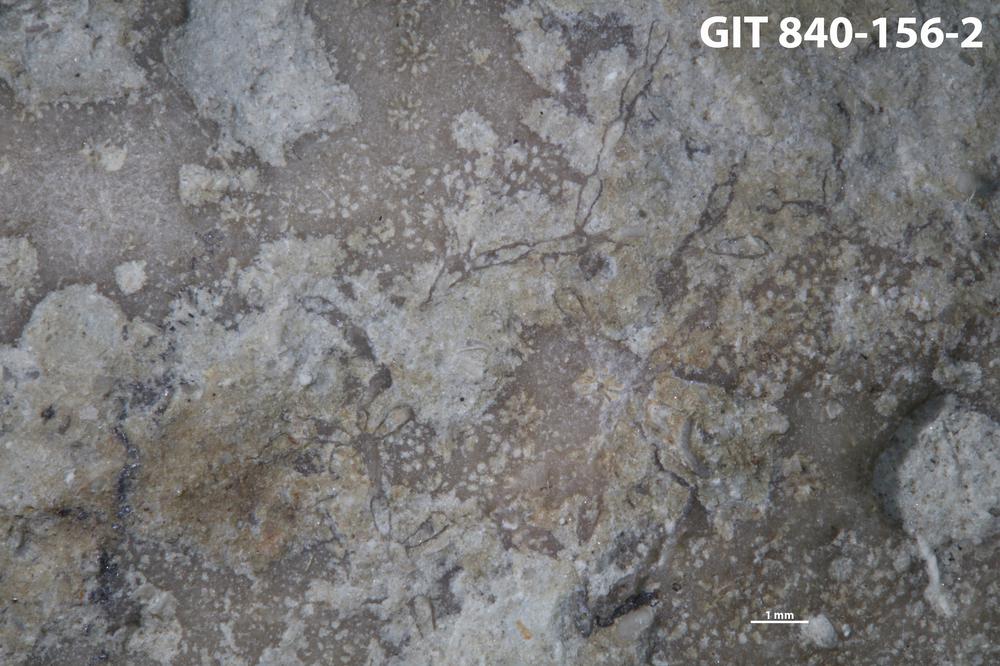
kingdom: Animalia
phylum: Bryozoa
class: Stenolaemata
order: Cyclostomatida
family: Corynotrypidae
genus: Corynotrypa
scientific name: Corynotrypa
